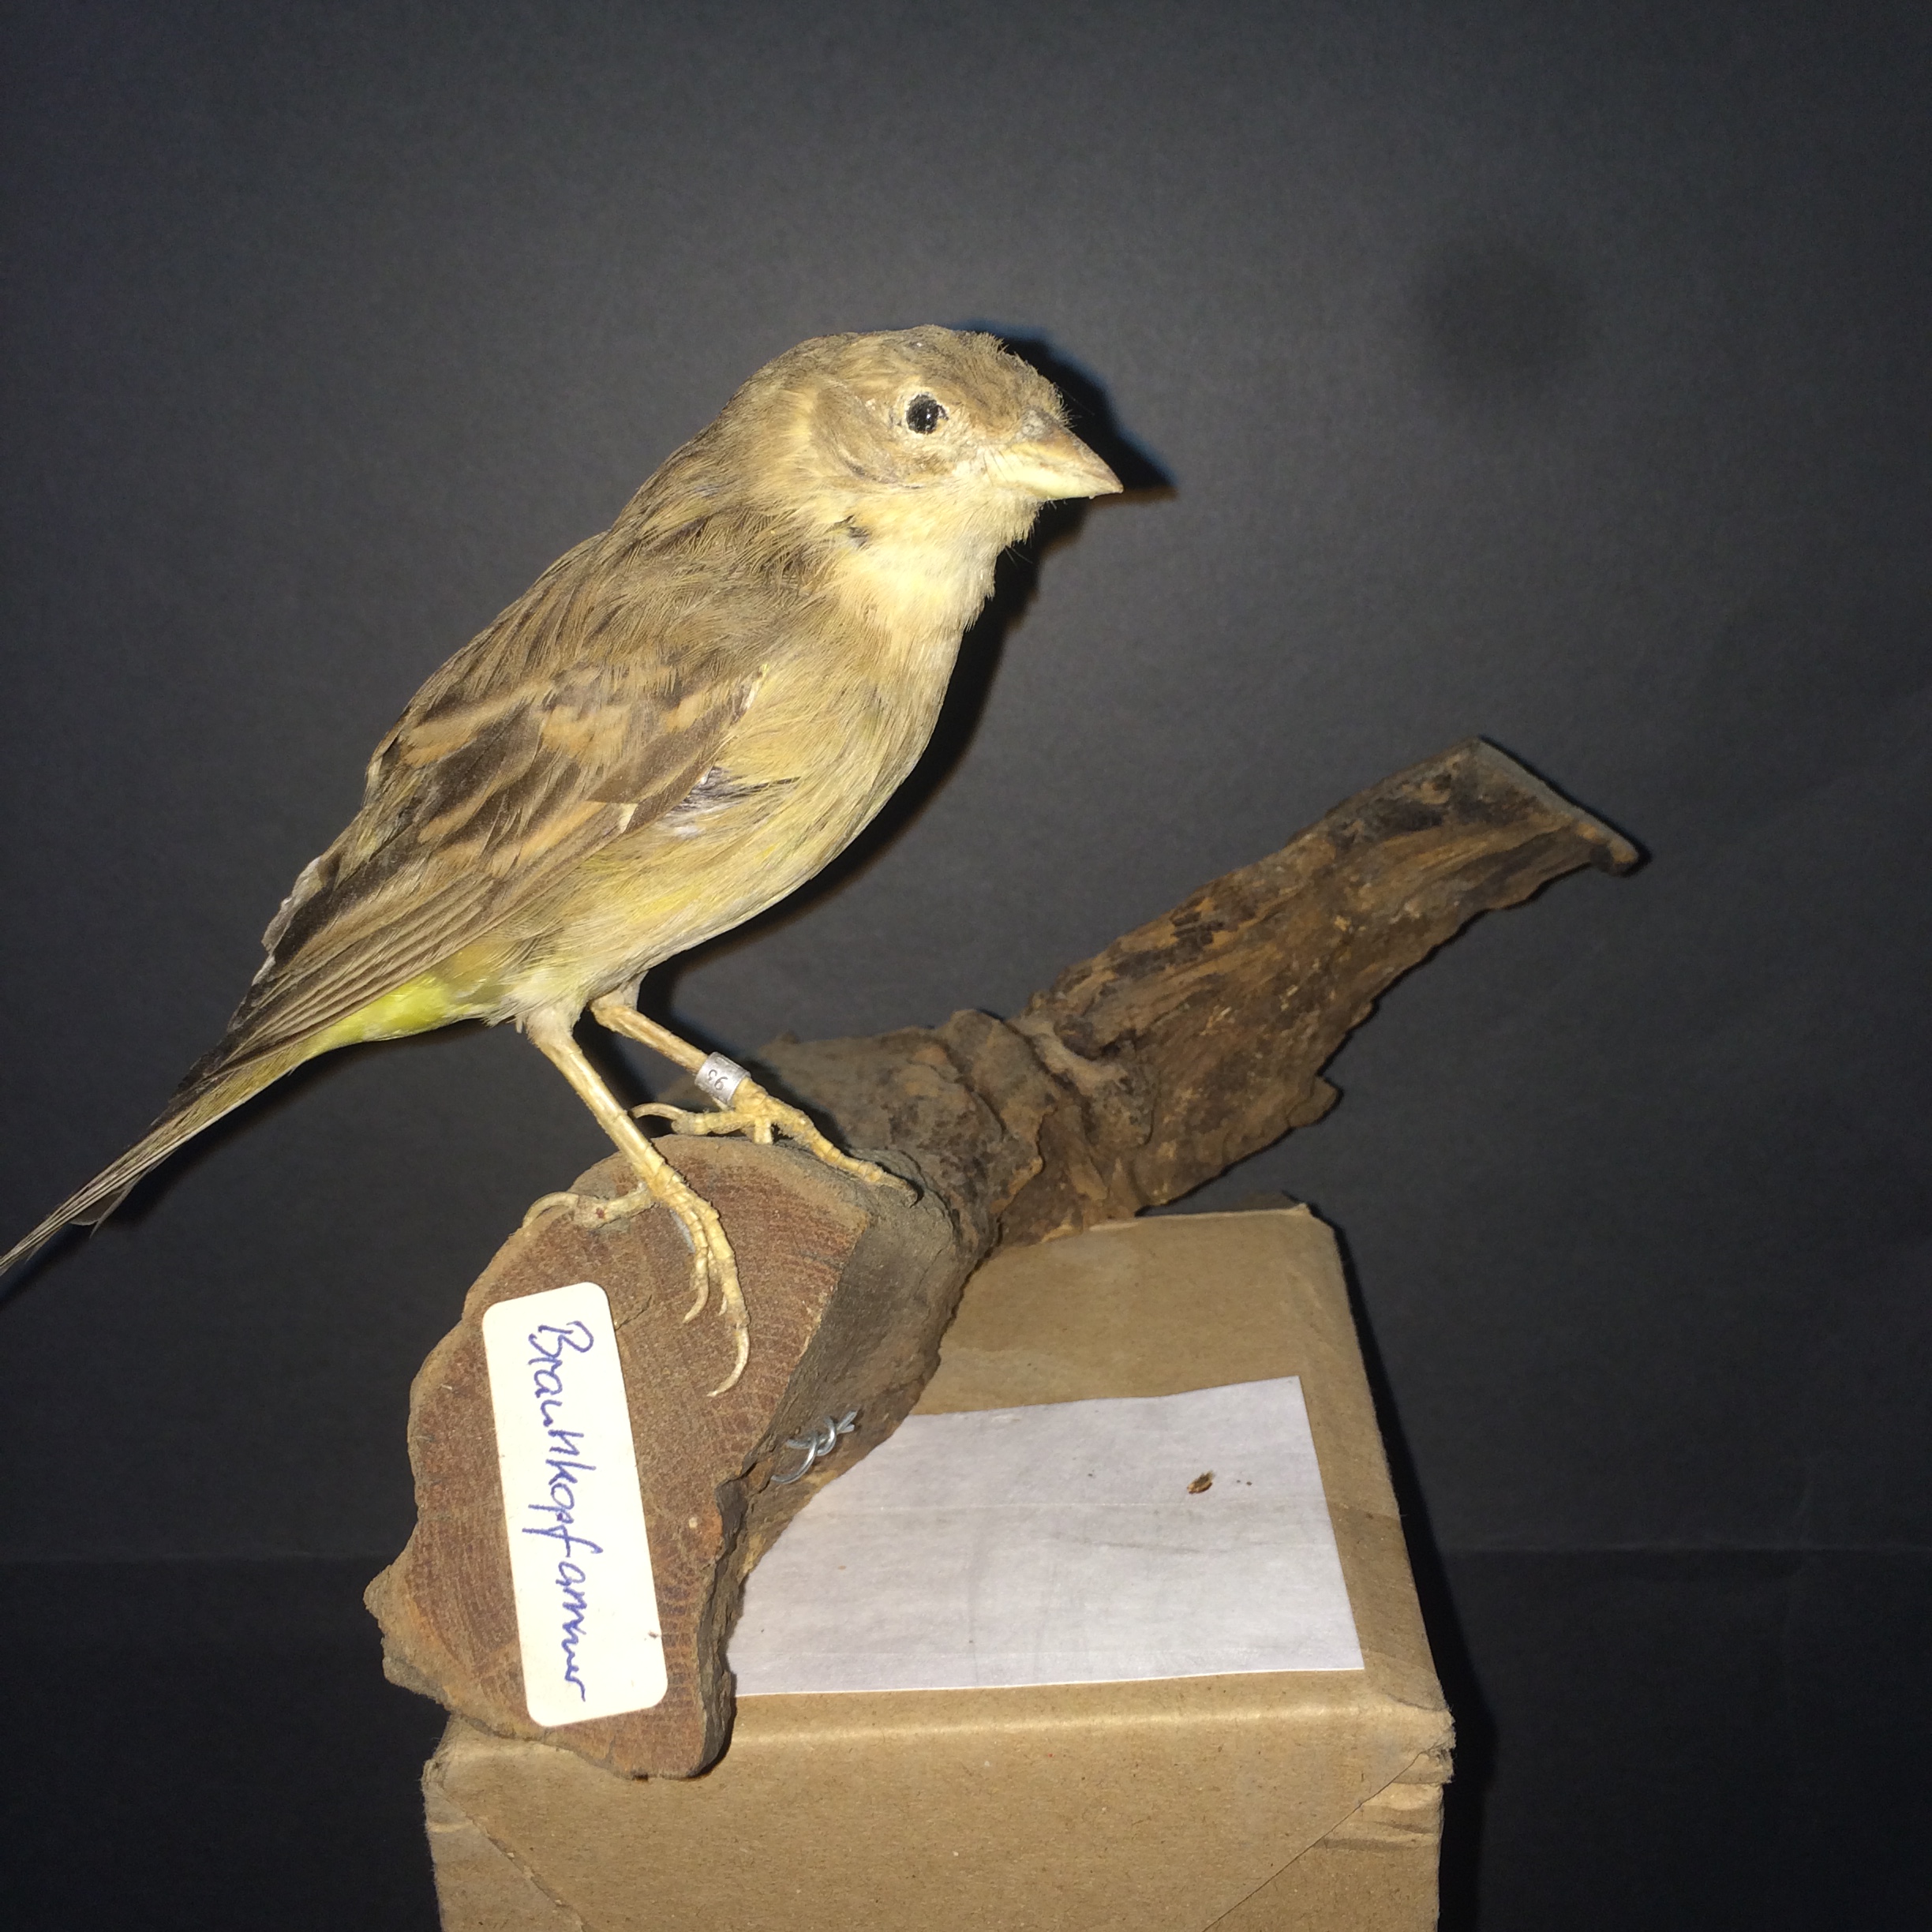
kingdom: Animalia
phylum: Chordata
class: Aves
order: Passeriformes
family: Emberizidae
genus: Emberiza
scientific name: Emberiza bruniceps
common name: Red-headed bunting
